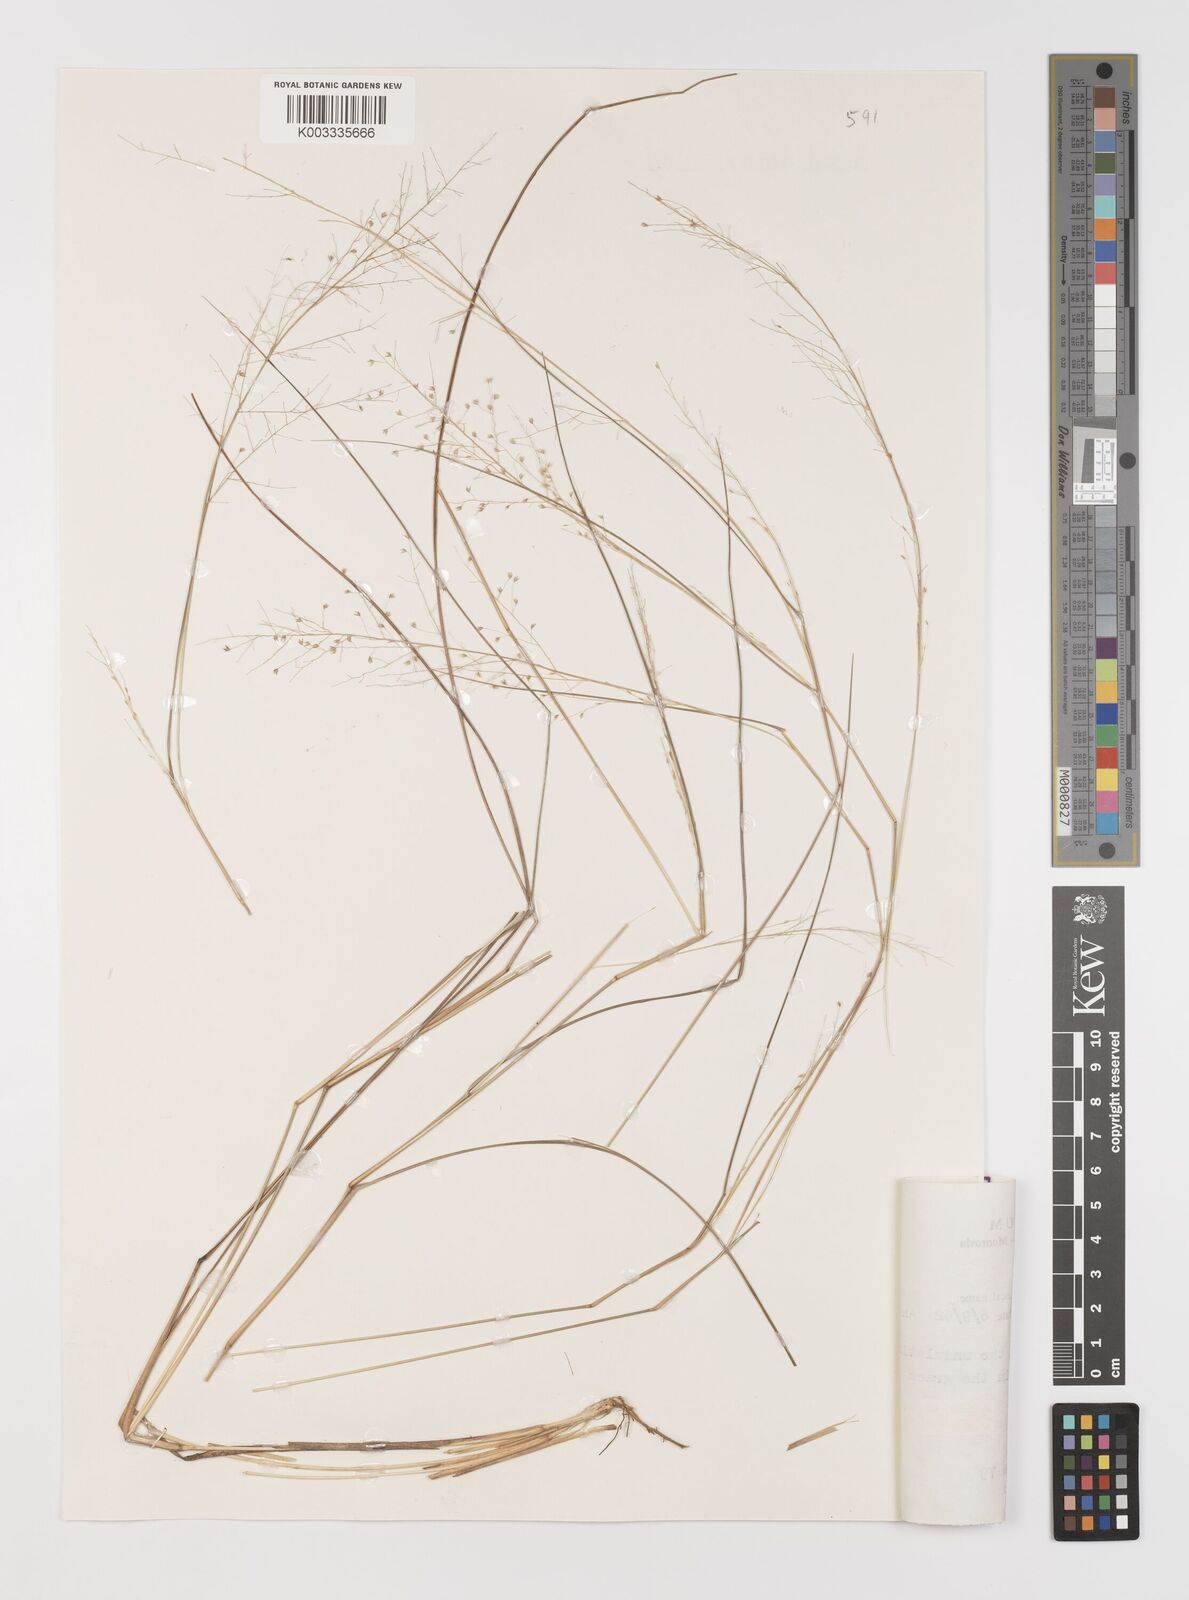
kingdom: Plantae
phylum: Tracheophyta
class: Liliopsida
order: Poales
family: Poaceae
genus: Panicum
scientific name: Panicum dregeanum
